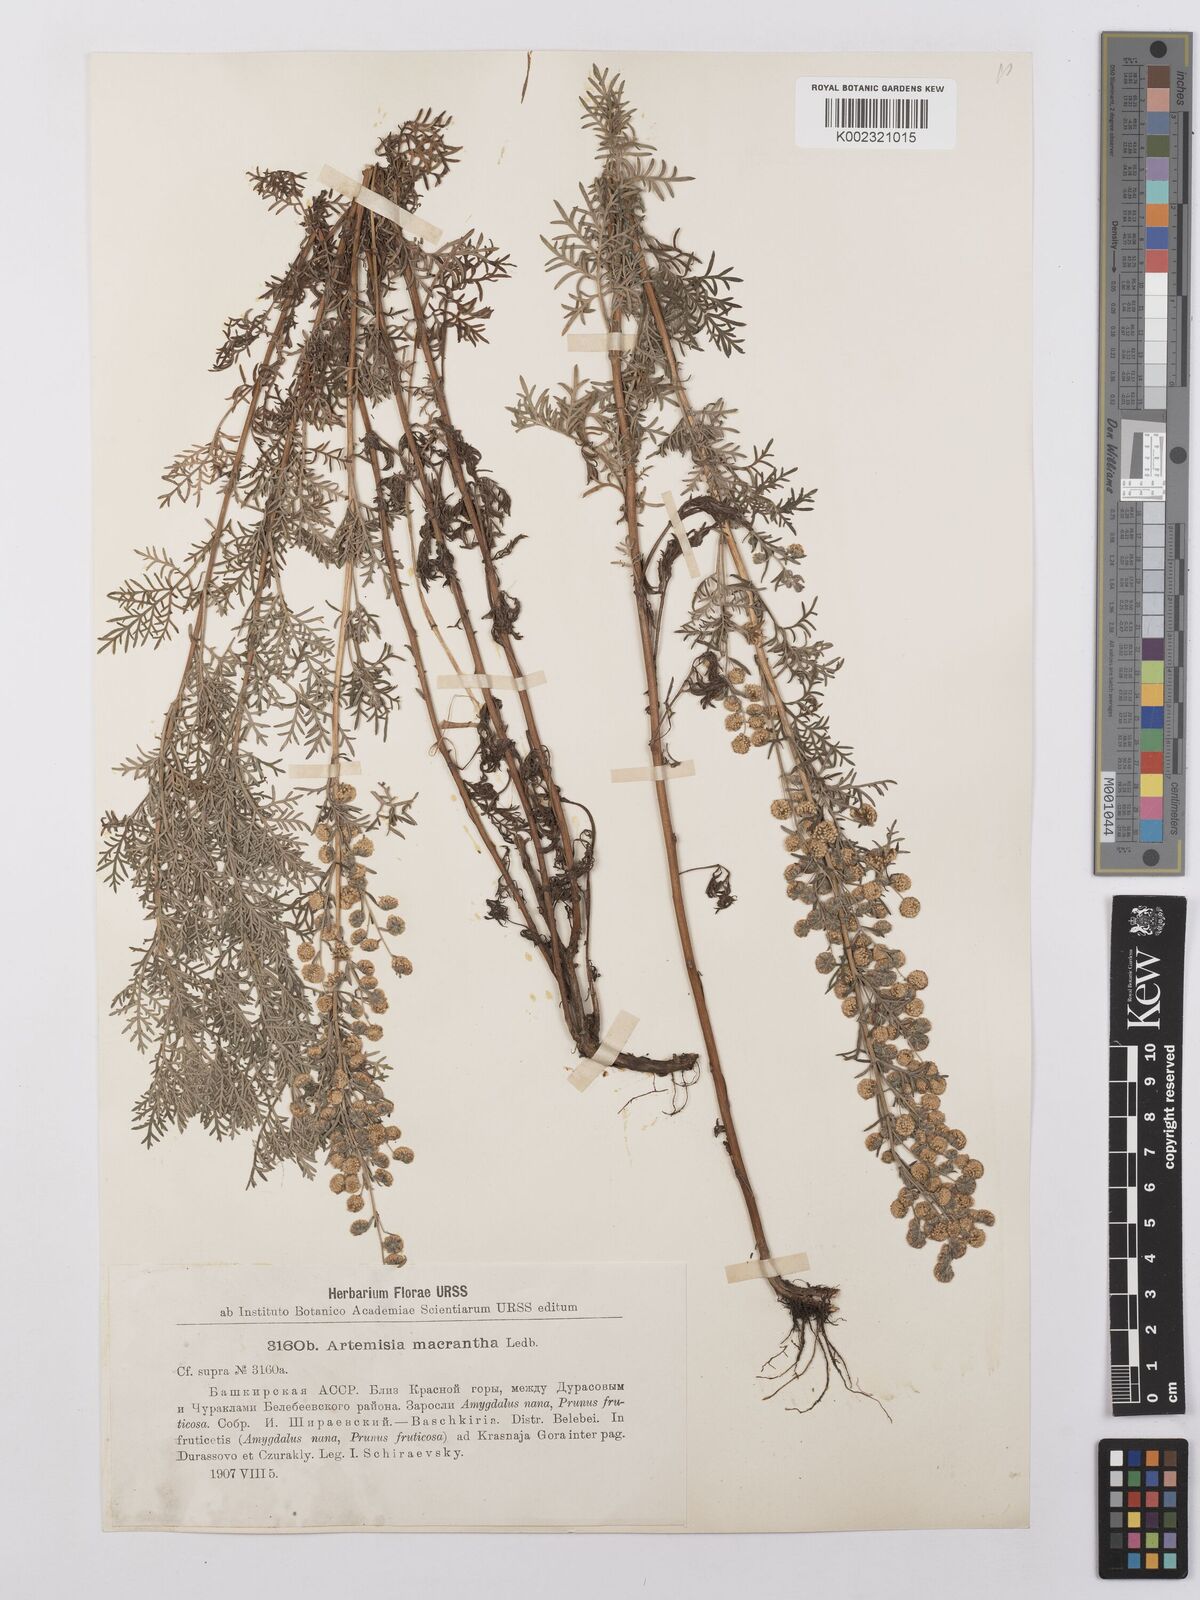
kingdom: Plantae
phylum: Tracheophyta
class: Magnoliopsida
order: Asterales
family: Asteraceae
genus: Artemisia
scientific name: Artemisia santonicum
